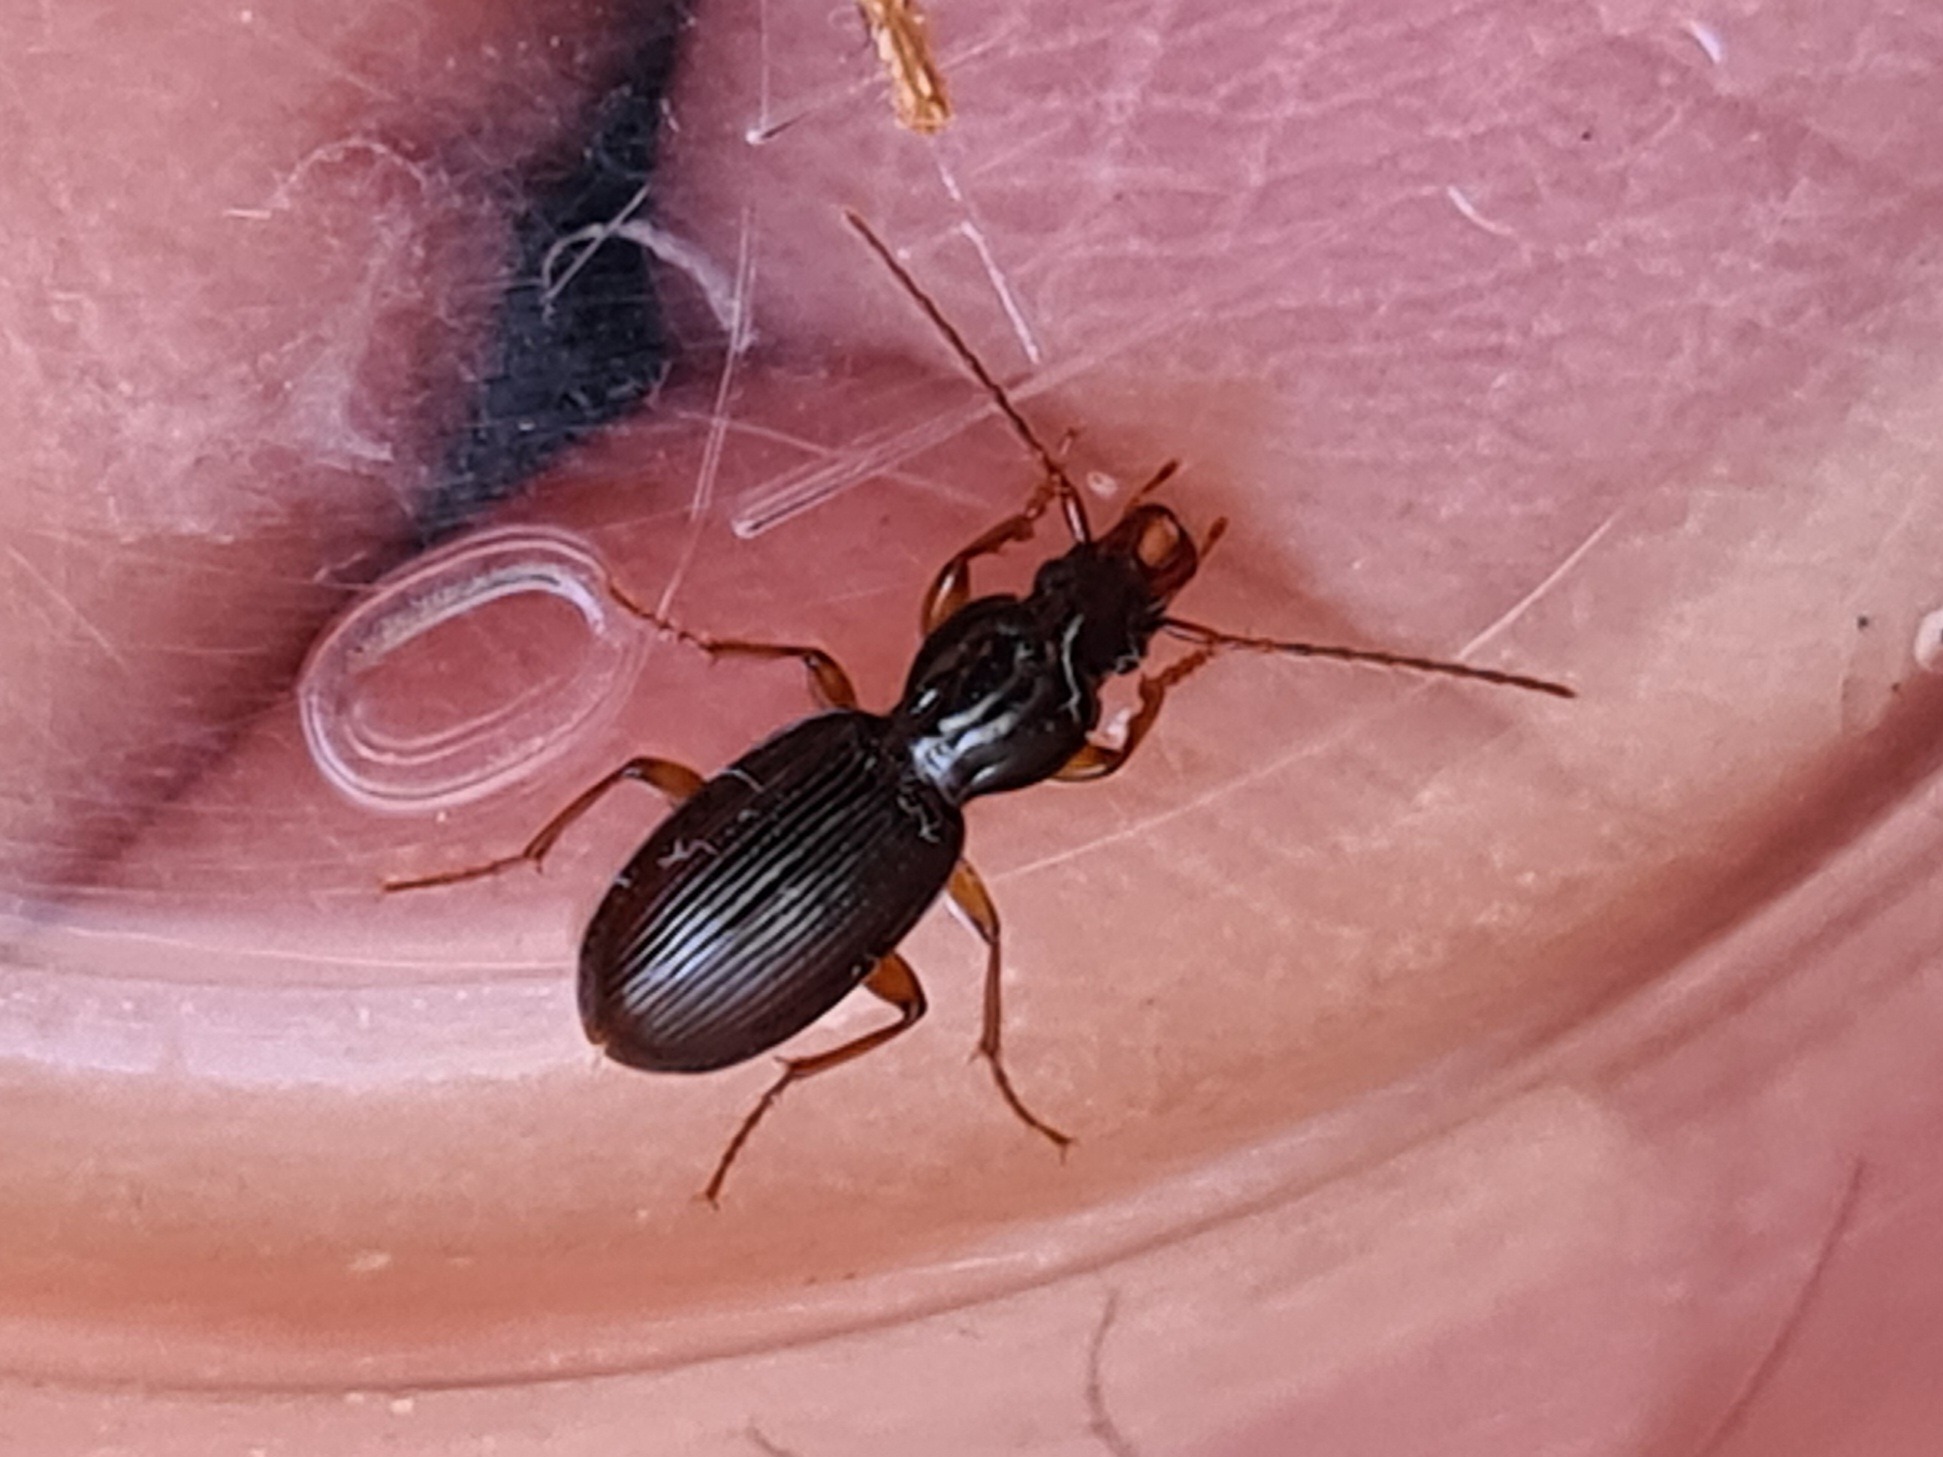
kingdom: Animalia
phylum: Arthropoda
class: Insecta
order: Coleoptera
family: Carabidae
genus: Stomis
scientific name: Stomis pumicatus
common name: Kæbeløber
